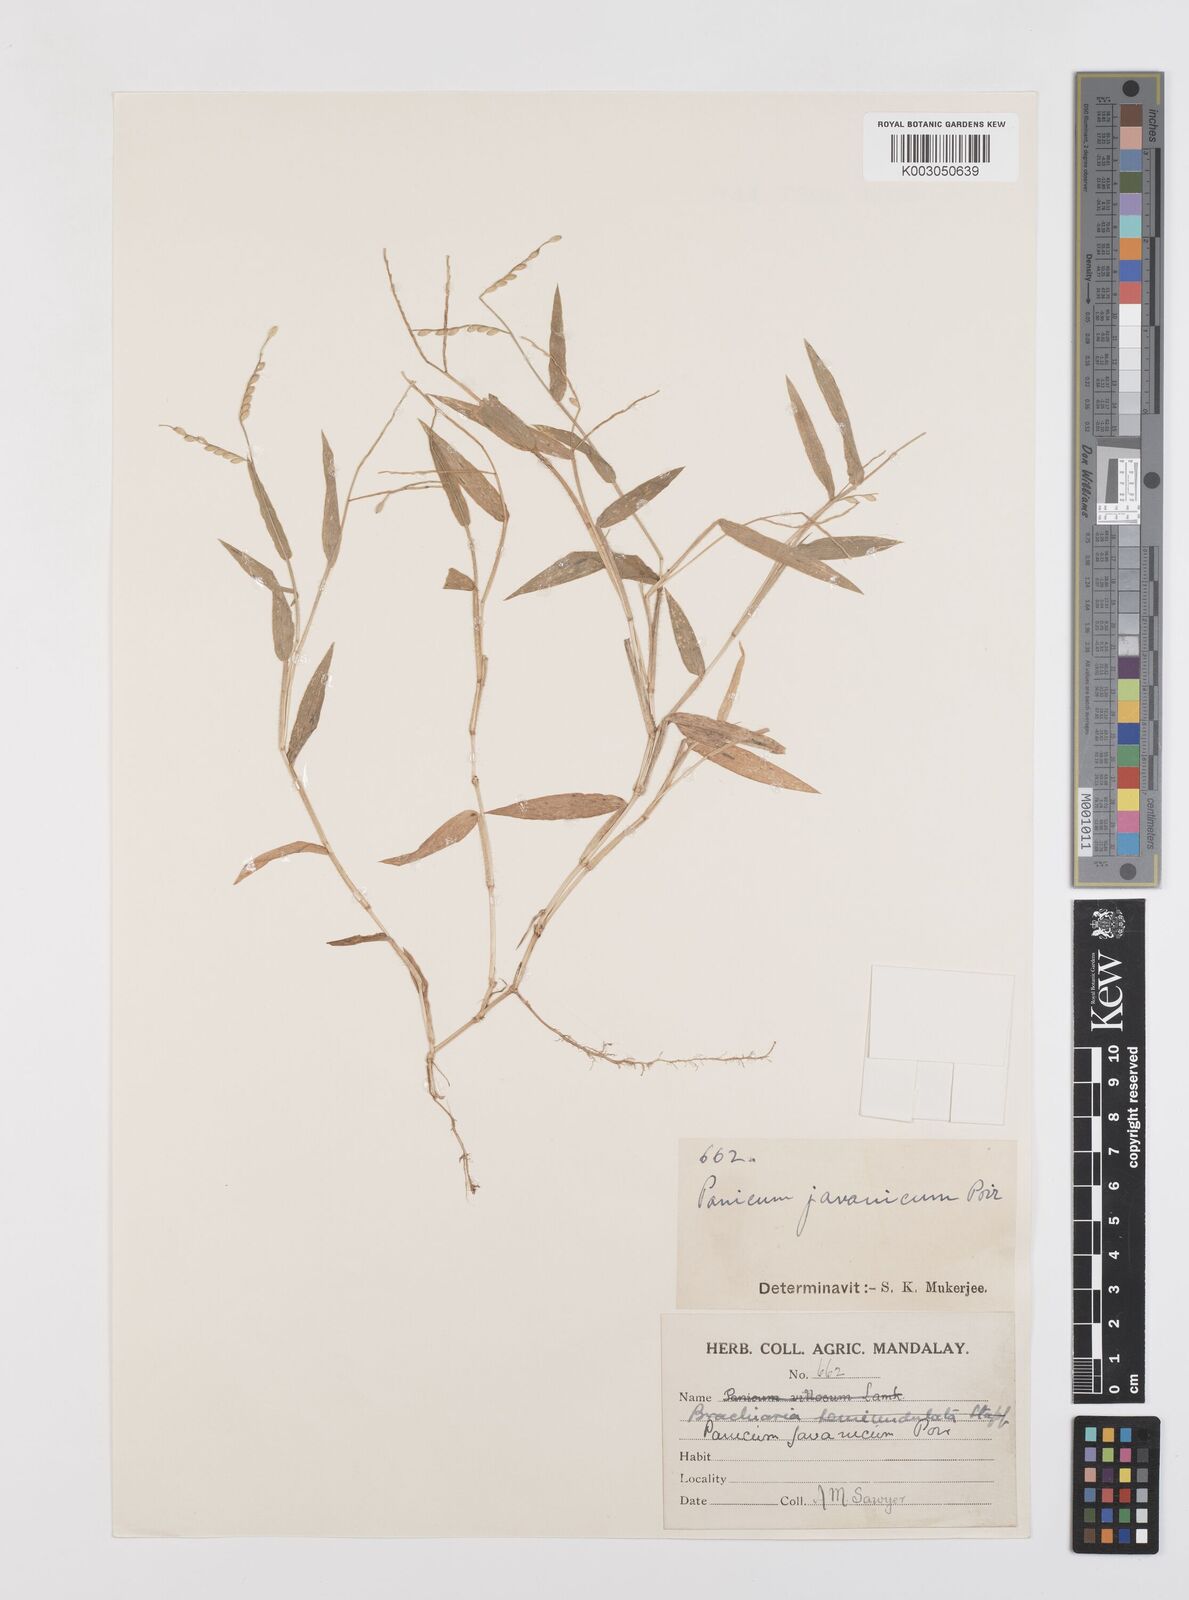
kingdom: Plantae
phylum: Tracheophyta
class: Liliopsida
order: Poales
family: Poaceae
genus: Urochloa
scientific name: Urochloa burmanica
